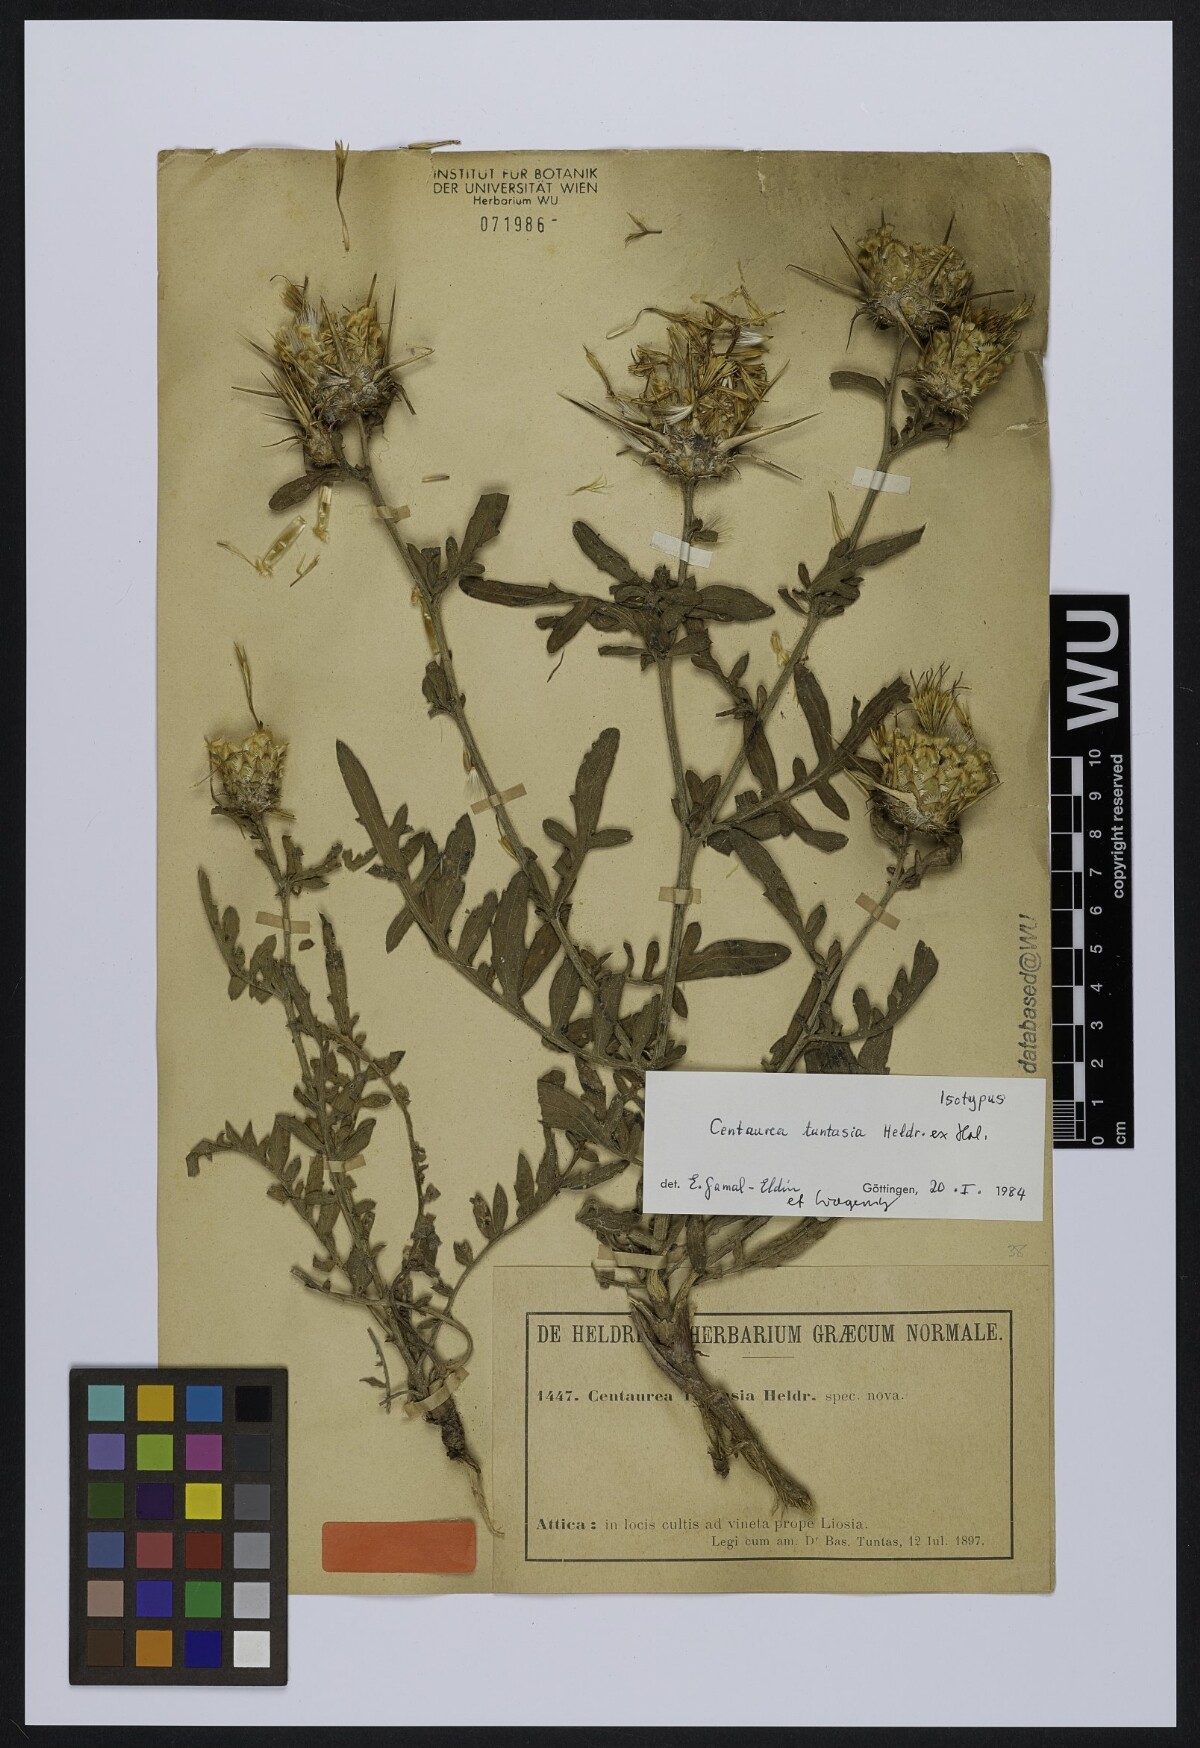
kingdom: Plantae
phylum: Tracheophyta
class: Magnoliopsida
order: Asterales
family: Asteraceae
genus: Centaurea
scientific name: Centaurea tuntasia
